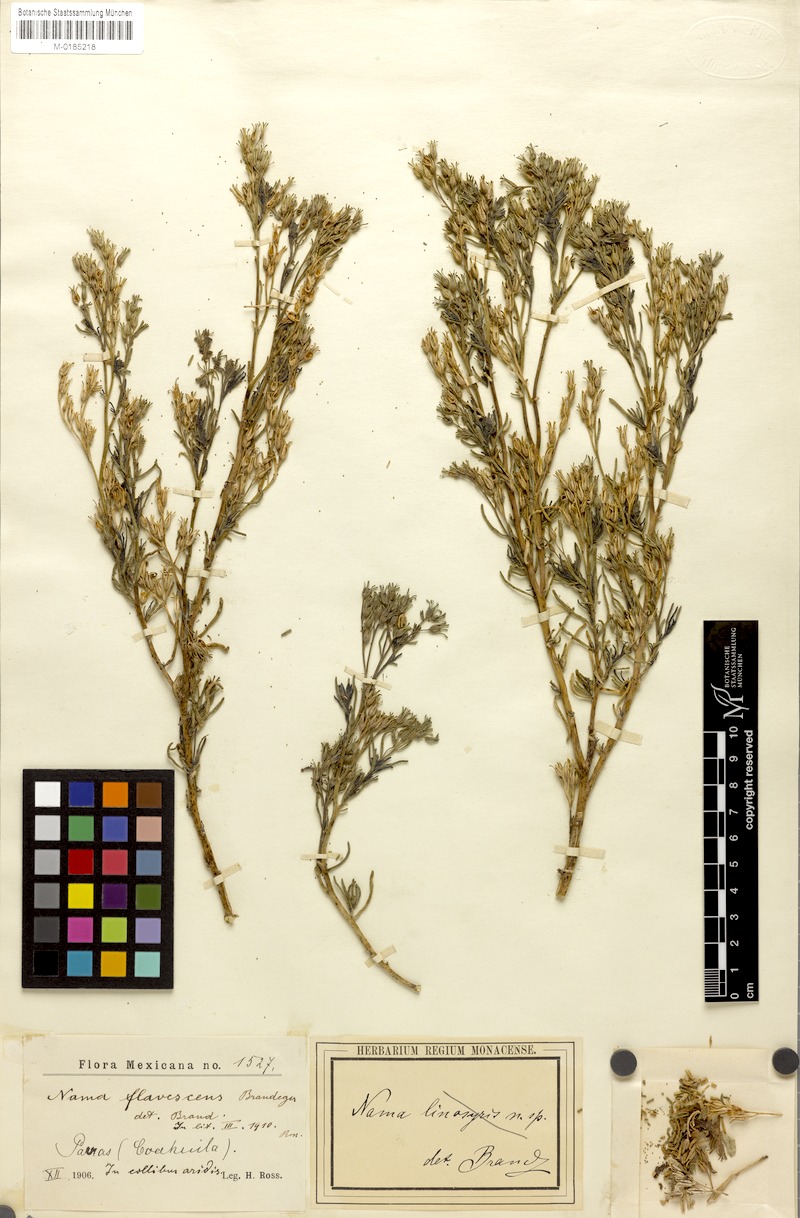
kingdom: Plantae
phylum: Tracheophyta
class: Magnoliopsida
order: Boraginales
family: Namaceae
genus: Nama
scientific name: Nama flavescens
